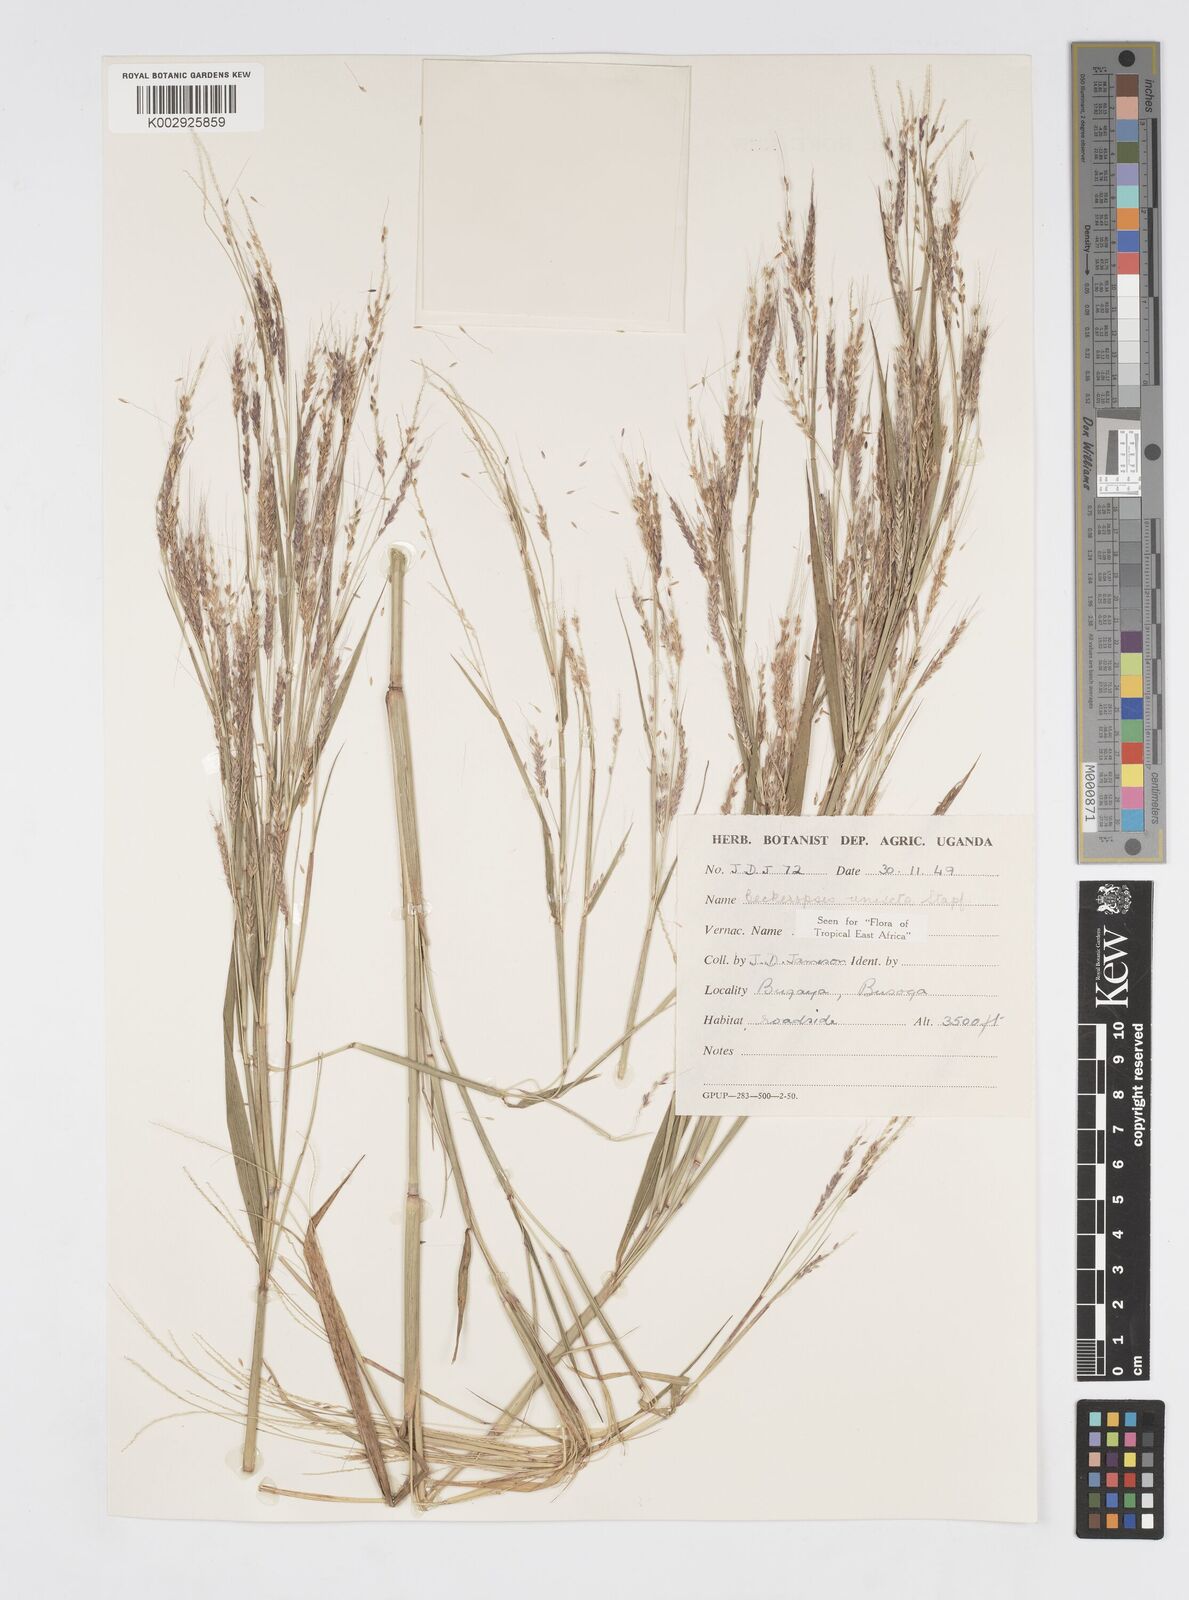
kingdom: Plantae
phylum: Tracheophyta
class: Liliopsida
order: Poales
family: Poaceae
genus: Cenchrus
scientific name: Cenchrus unisetus
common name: Natal grass
